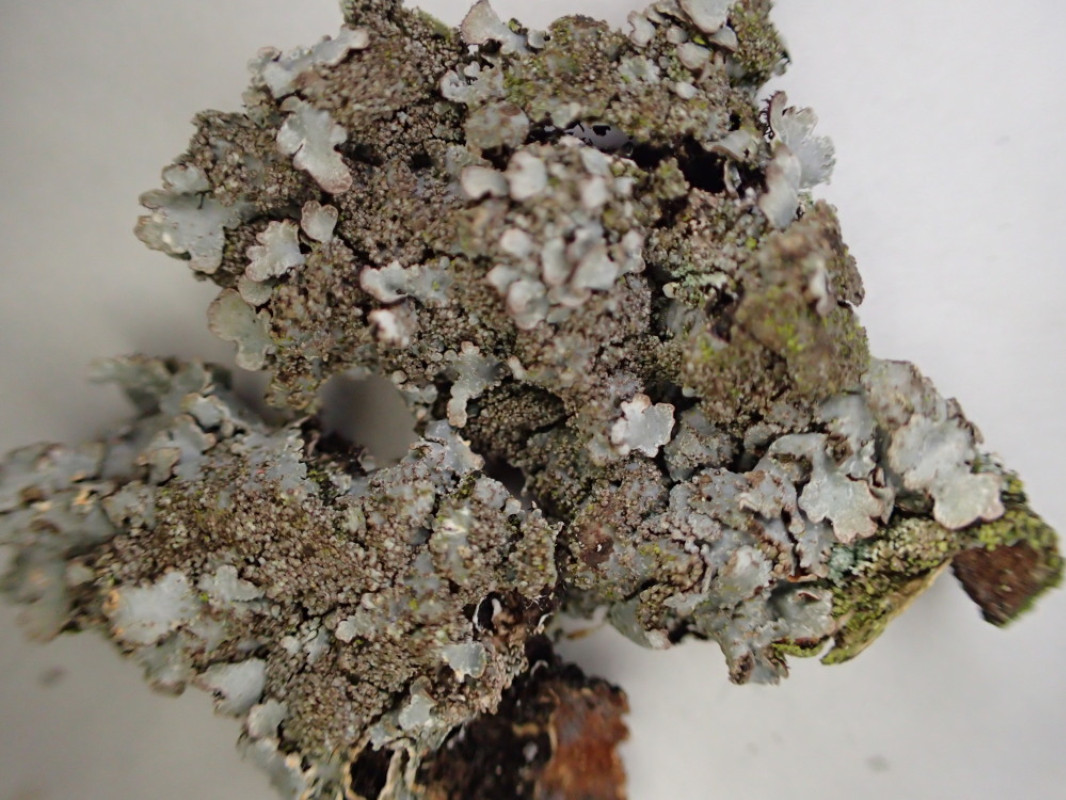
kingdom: Fungi
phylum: Ascomycota
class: Lecanoromycetes
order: Lecanorales
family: Parmeliaceae
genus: Parmelia
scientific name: Parmelia ernstiae
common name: rimstift-skållav
